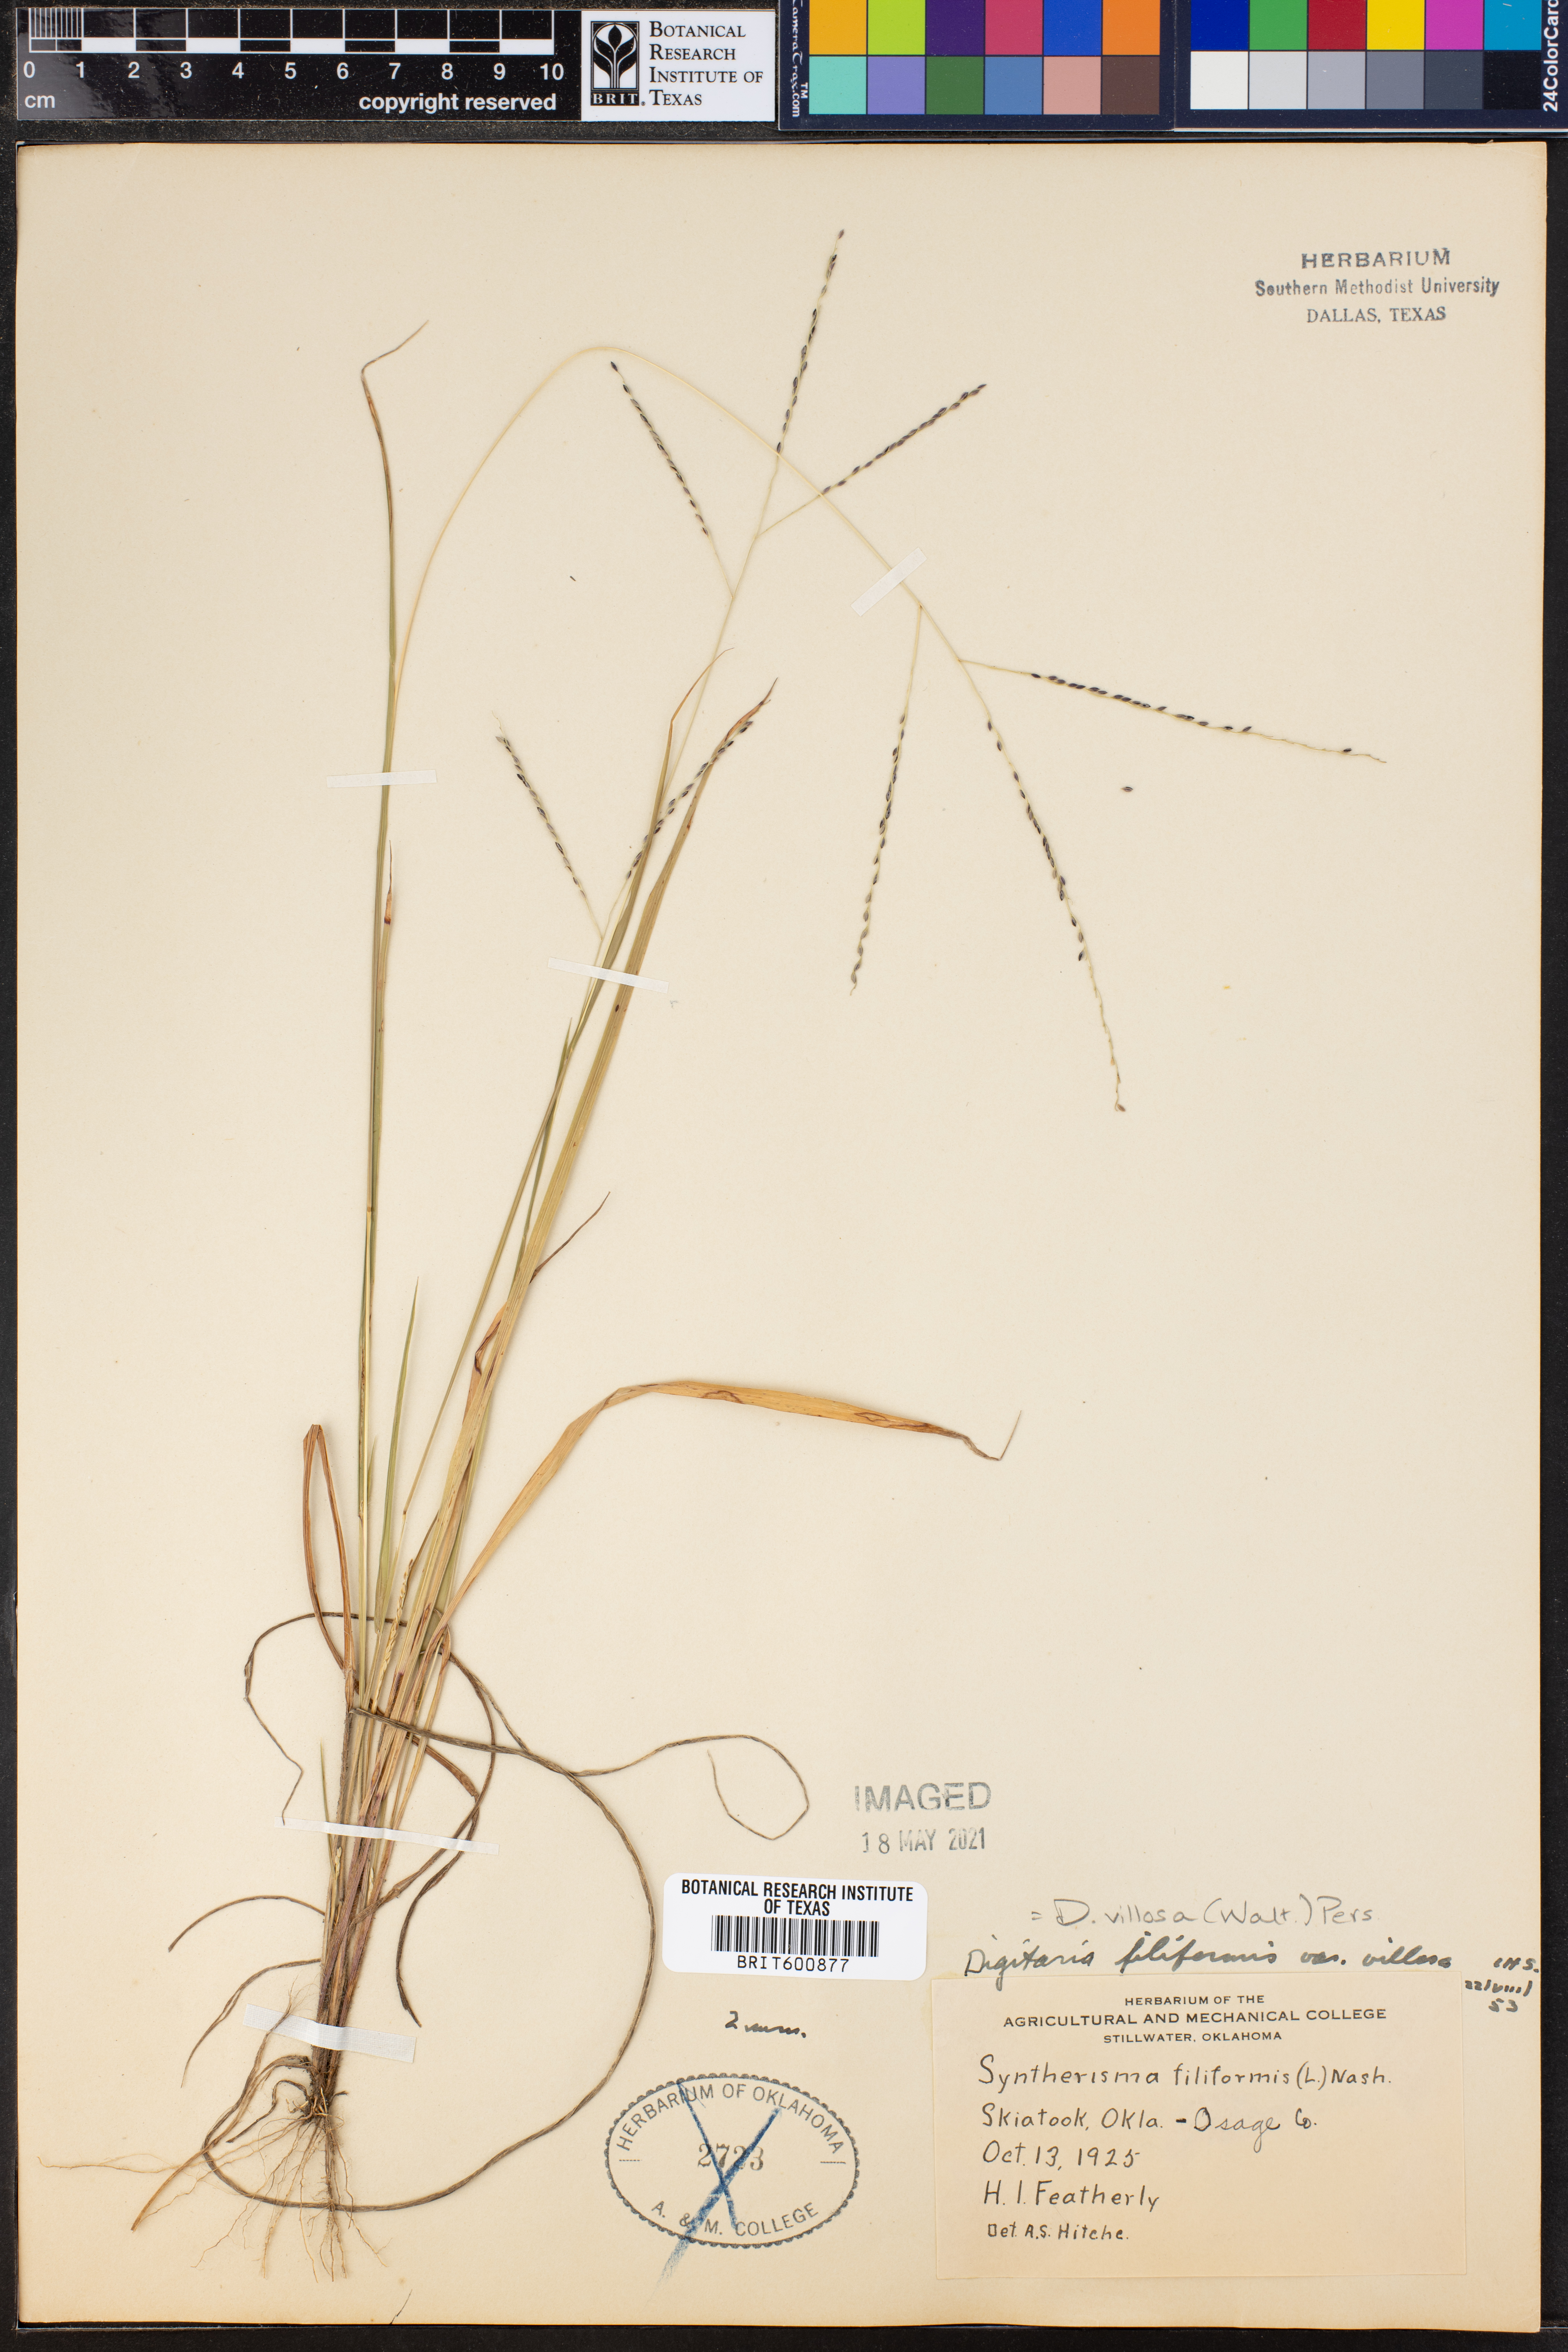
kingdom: Plantae
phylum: Tracheophyta
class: Liliopsida
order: Poales
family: Poaceae
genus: Digitaria
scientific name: Digitaria villosa
